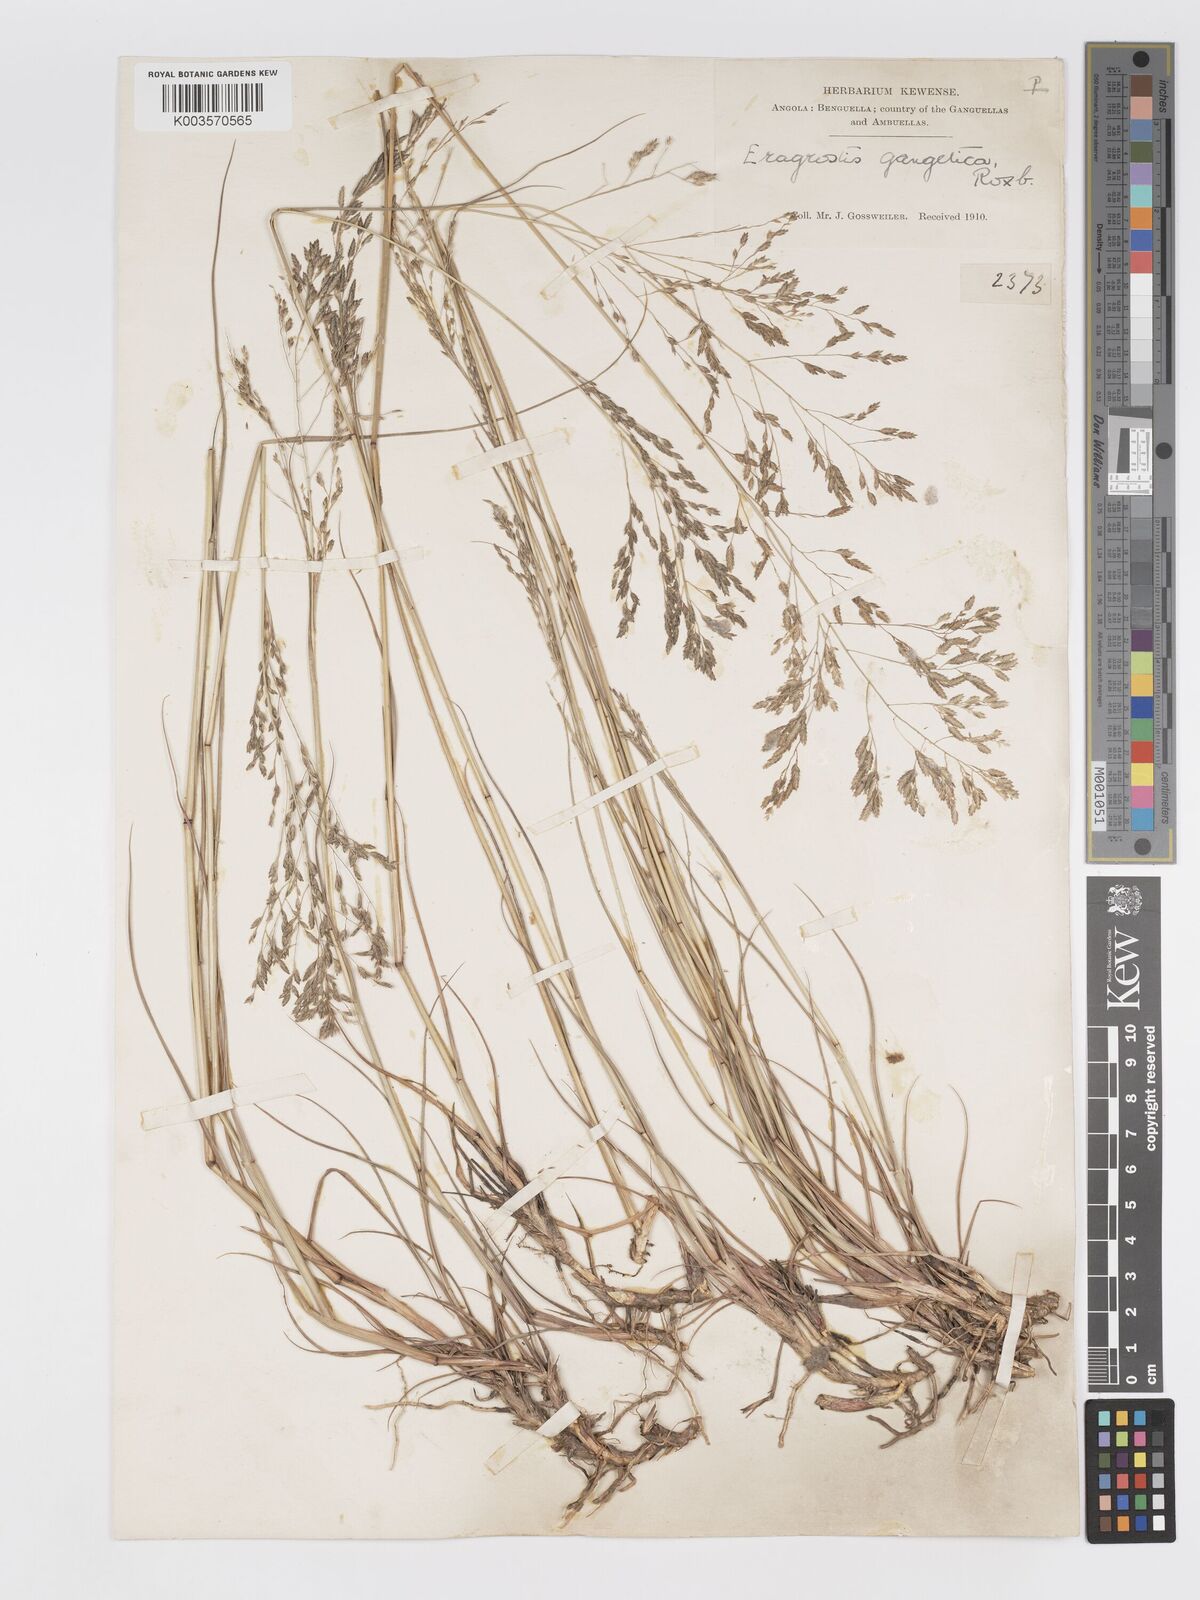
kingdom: Plantae
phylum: Tracheophyta
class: Liliopsida
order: Poales
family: Poaceae
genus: Eragrostis
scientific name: Eragrostis inamoena
